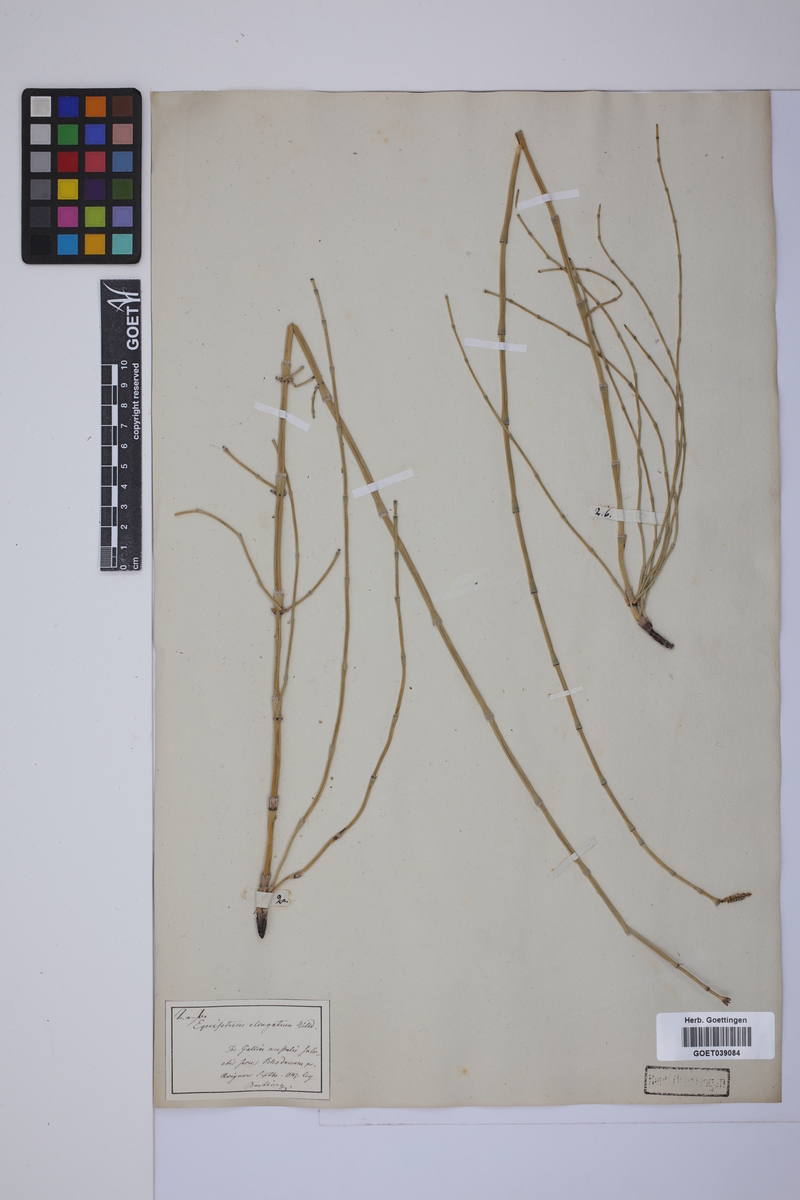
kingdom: Plantae
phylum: Tracheophyta
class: Polypodiopsida
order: Equisetales
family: Equisetaceae
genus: Equisetum
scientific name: Equisetum giganteum
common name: Giant horsetail
